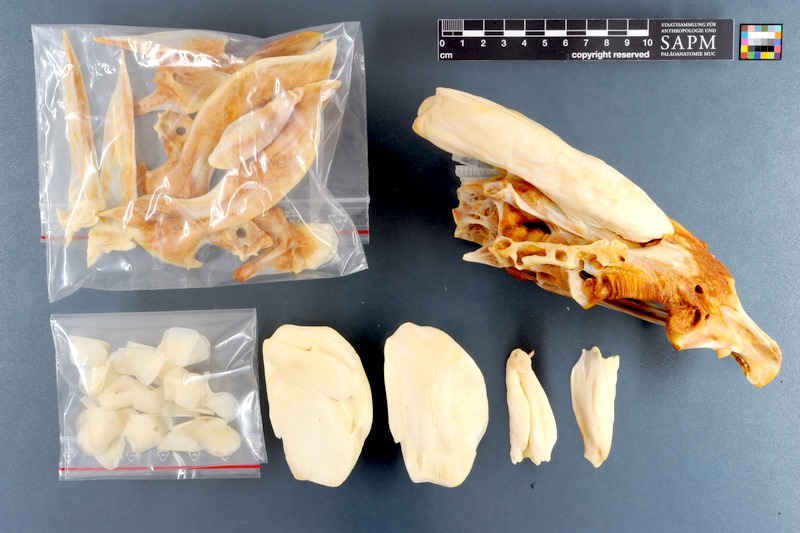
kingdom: Animalia
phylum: Chordata
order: Perciformes
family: Haemulidae
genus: Pomadasys
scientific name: Pomadasys commersonnii
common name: Smallspotted grunter
